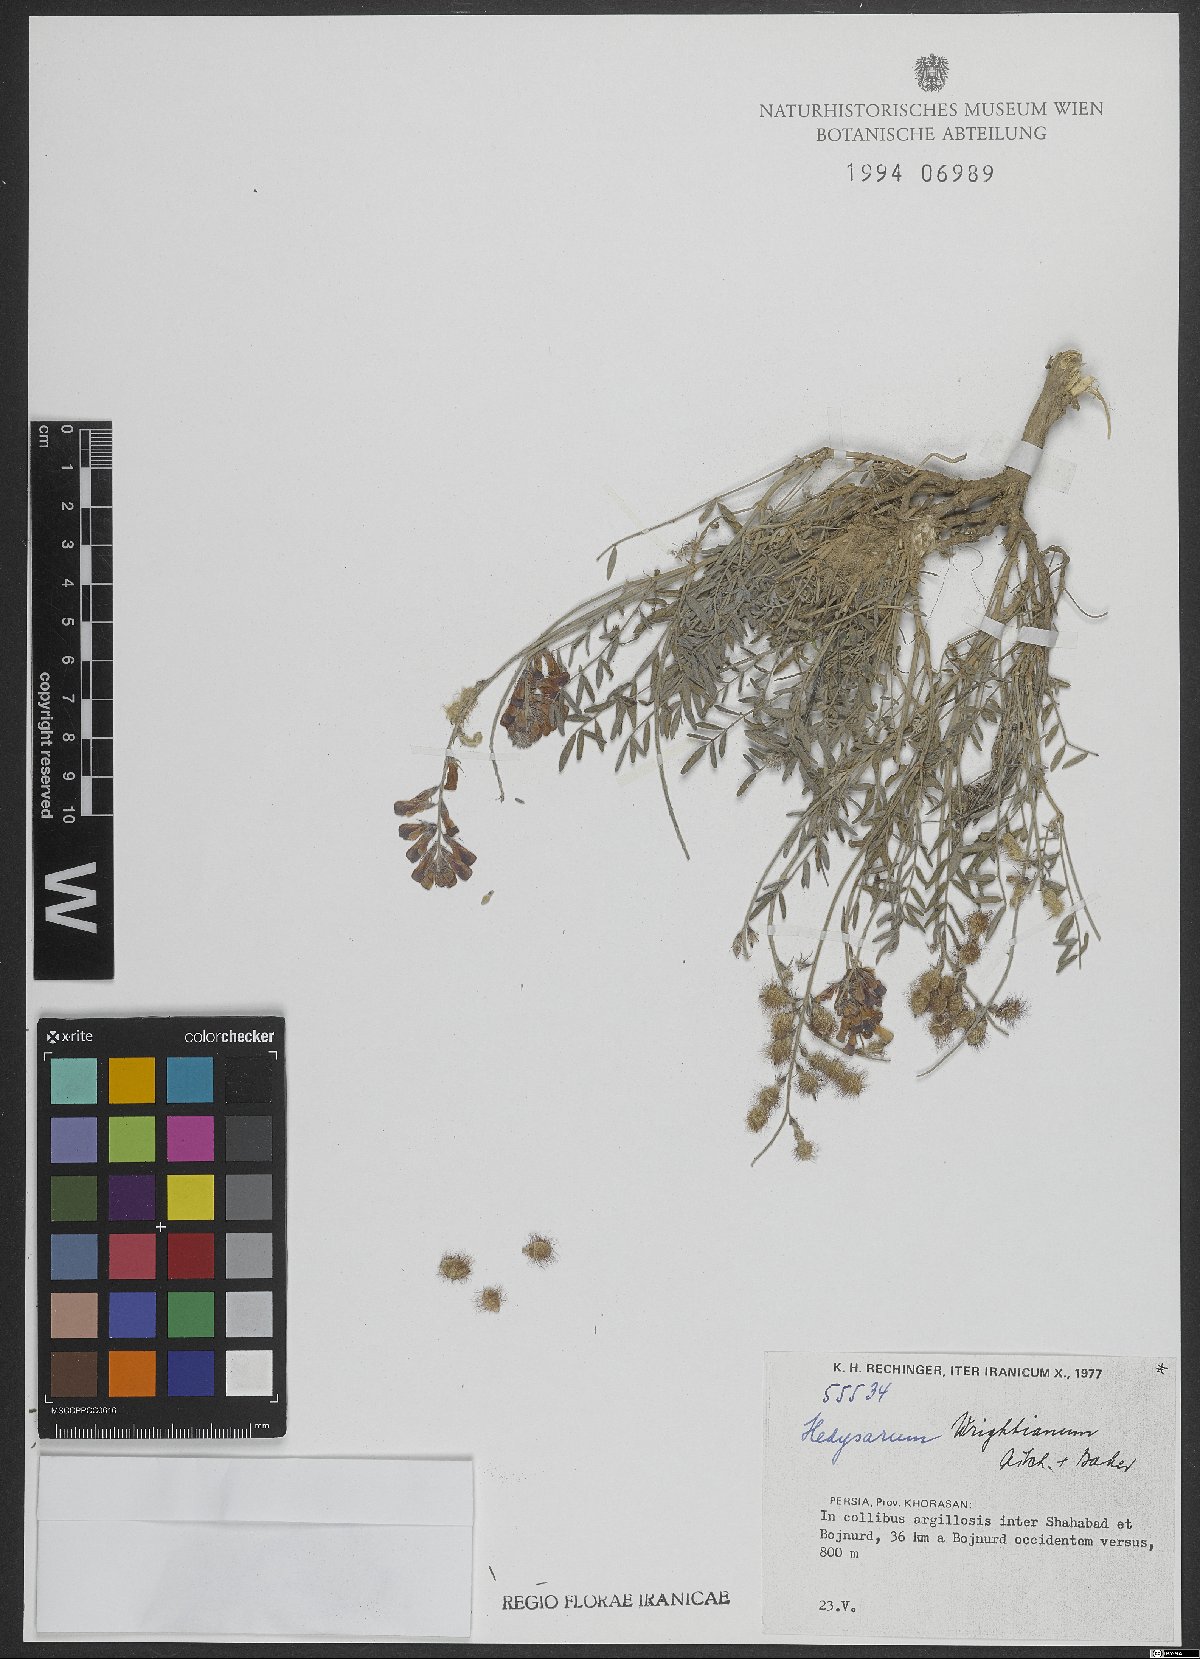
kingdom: Plantae
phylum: Tracheophyta
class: Magnoliopsida
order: Fabales
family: Fabaceae
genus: Hedysarum
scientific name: Hedysarum micropterum
